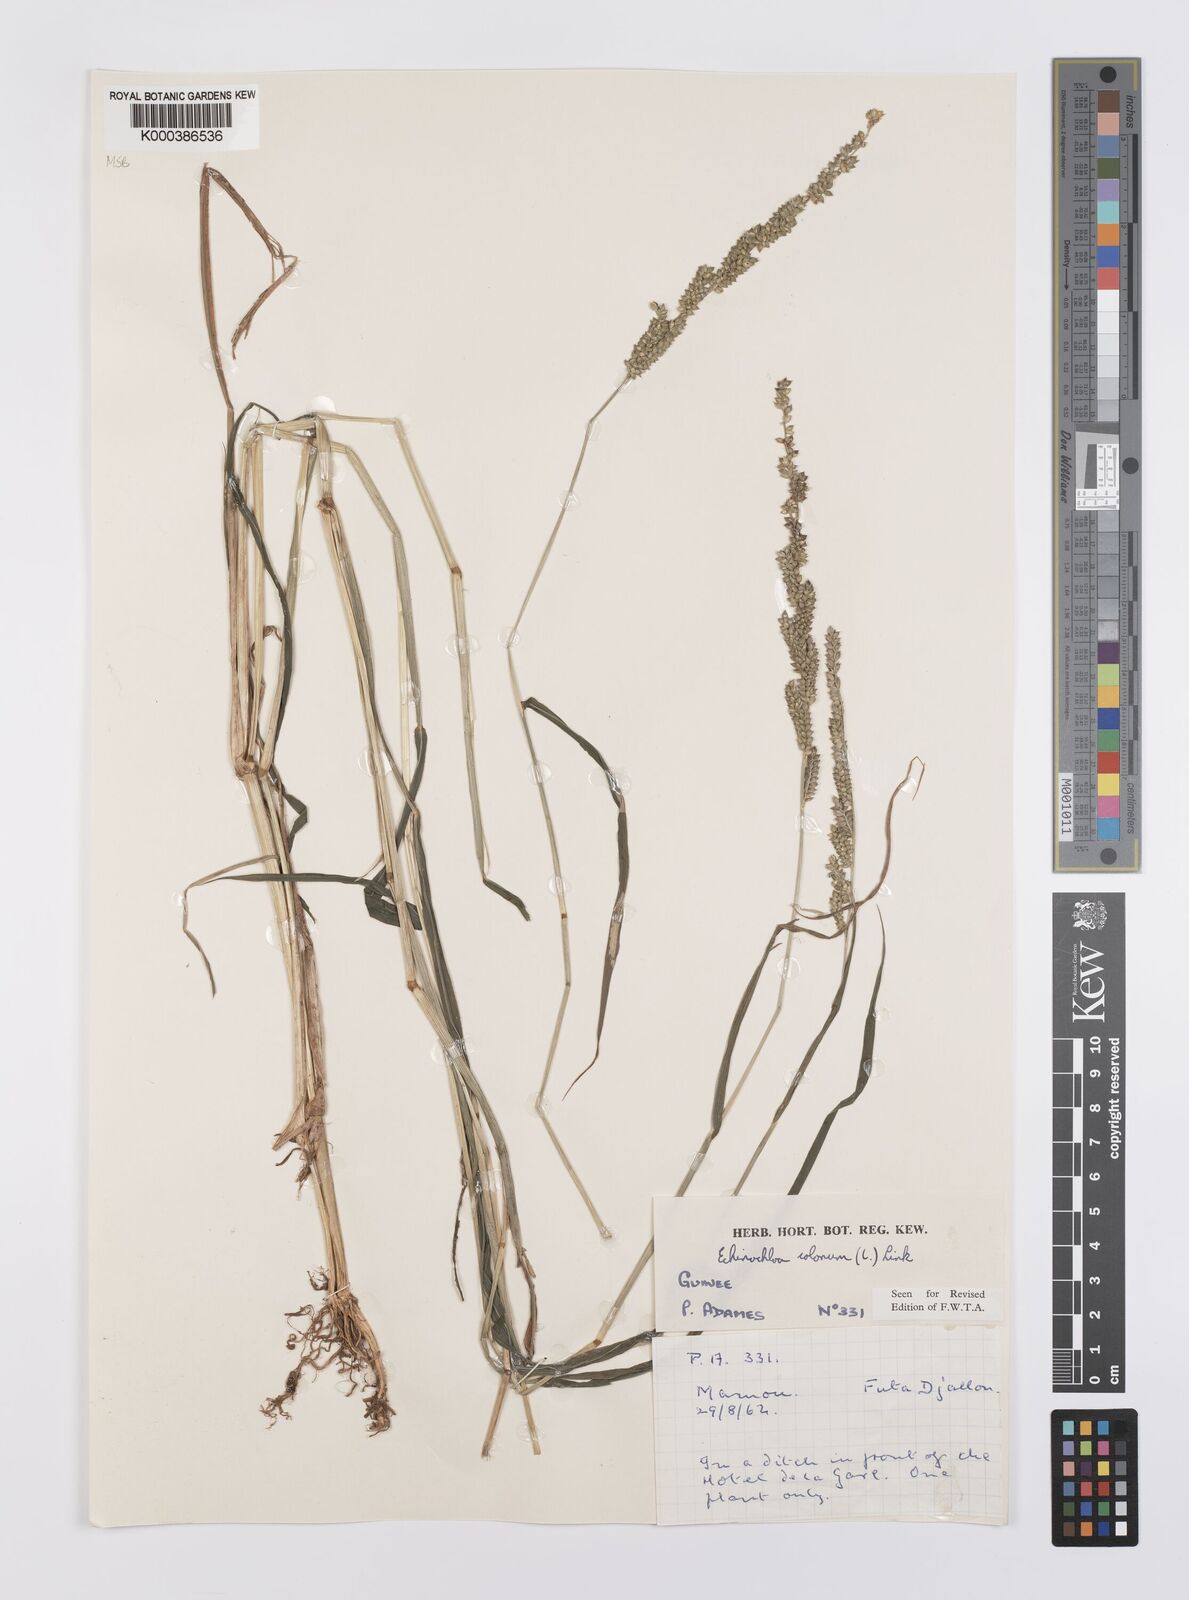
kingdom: Plantae
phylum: Tracheophyta
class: Liliopsida
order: Poales
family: Poaceae
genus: Echinochloa
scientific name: Echinochloa colonum
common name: Jungle rice
